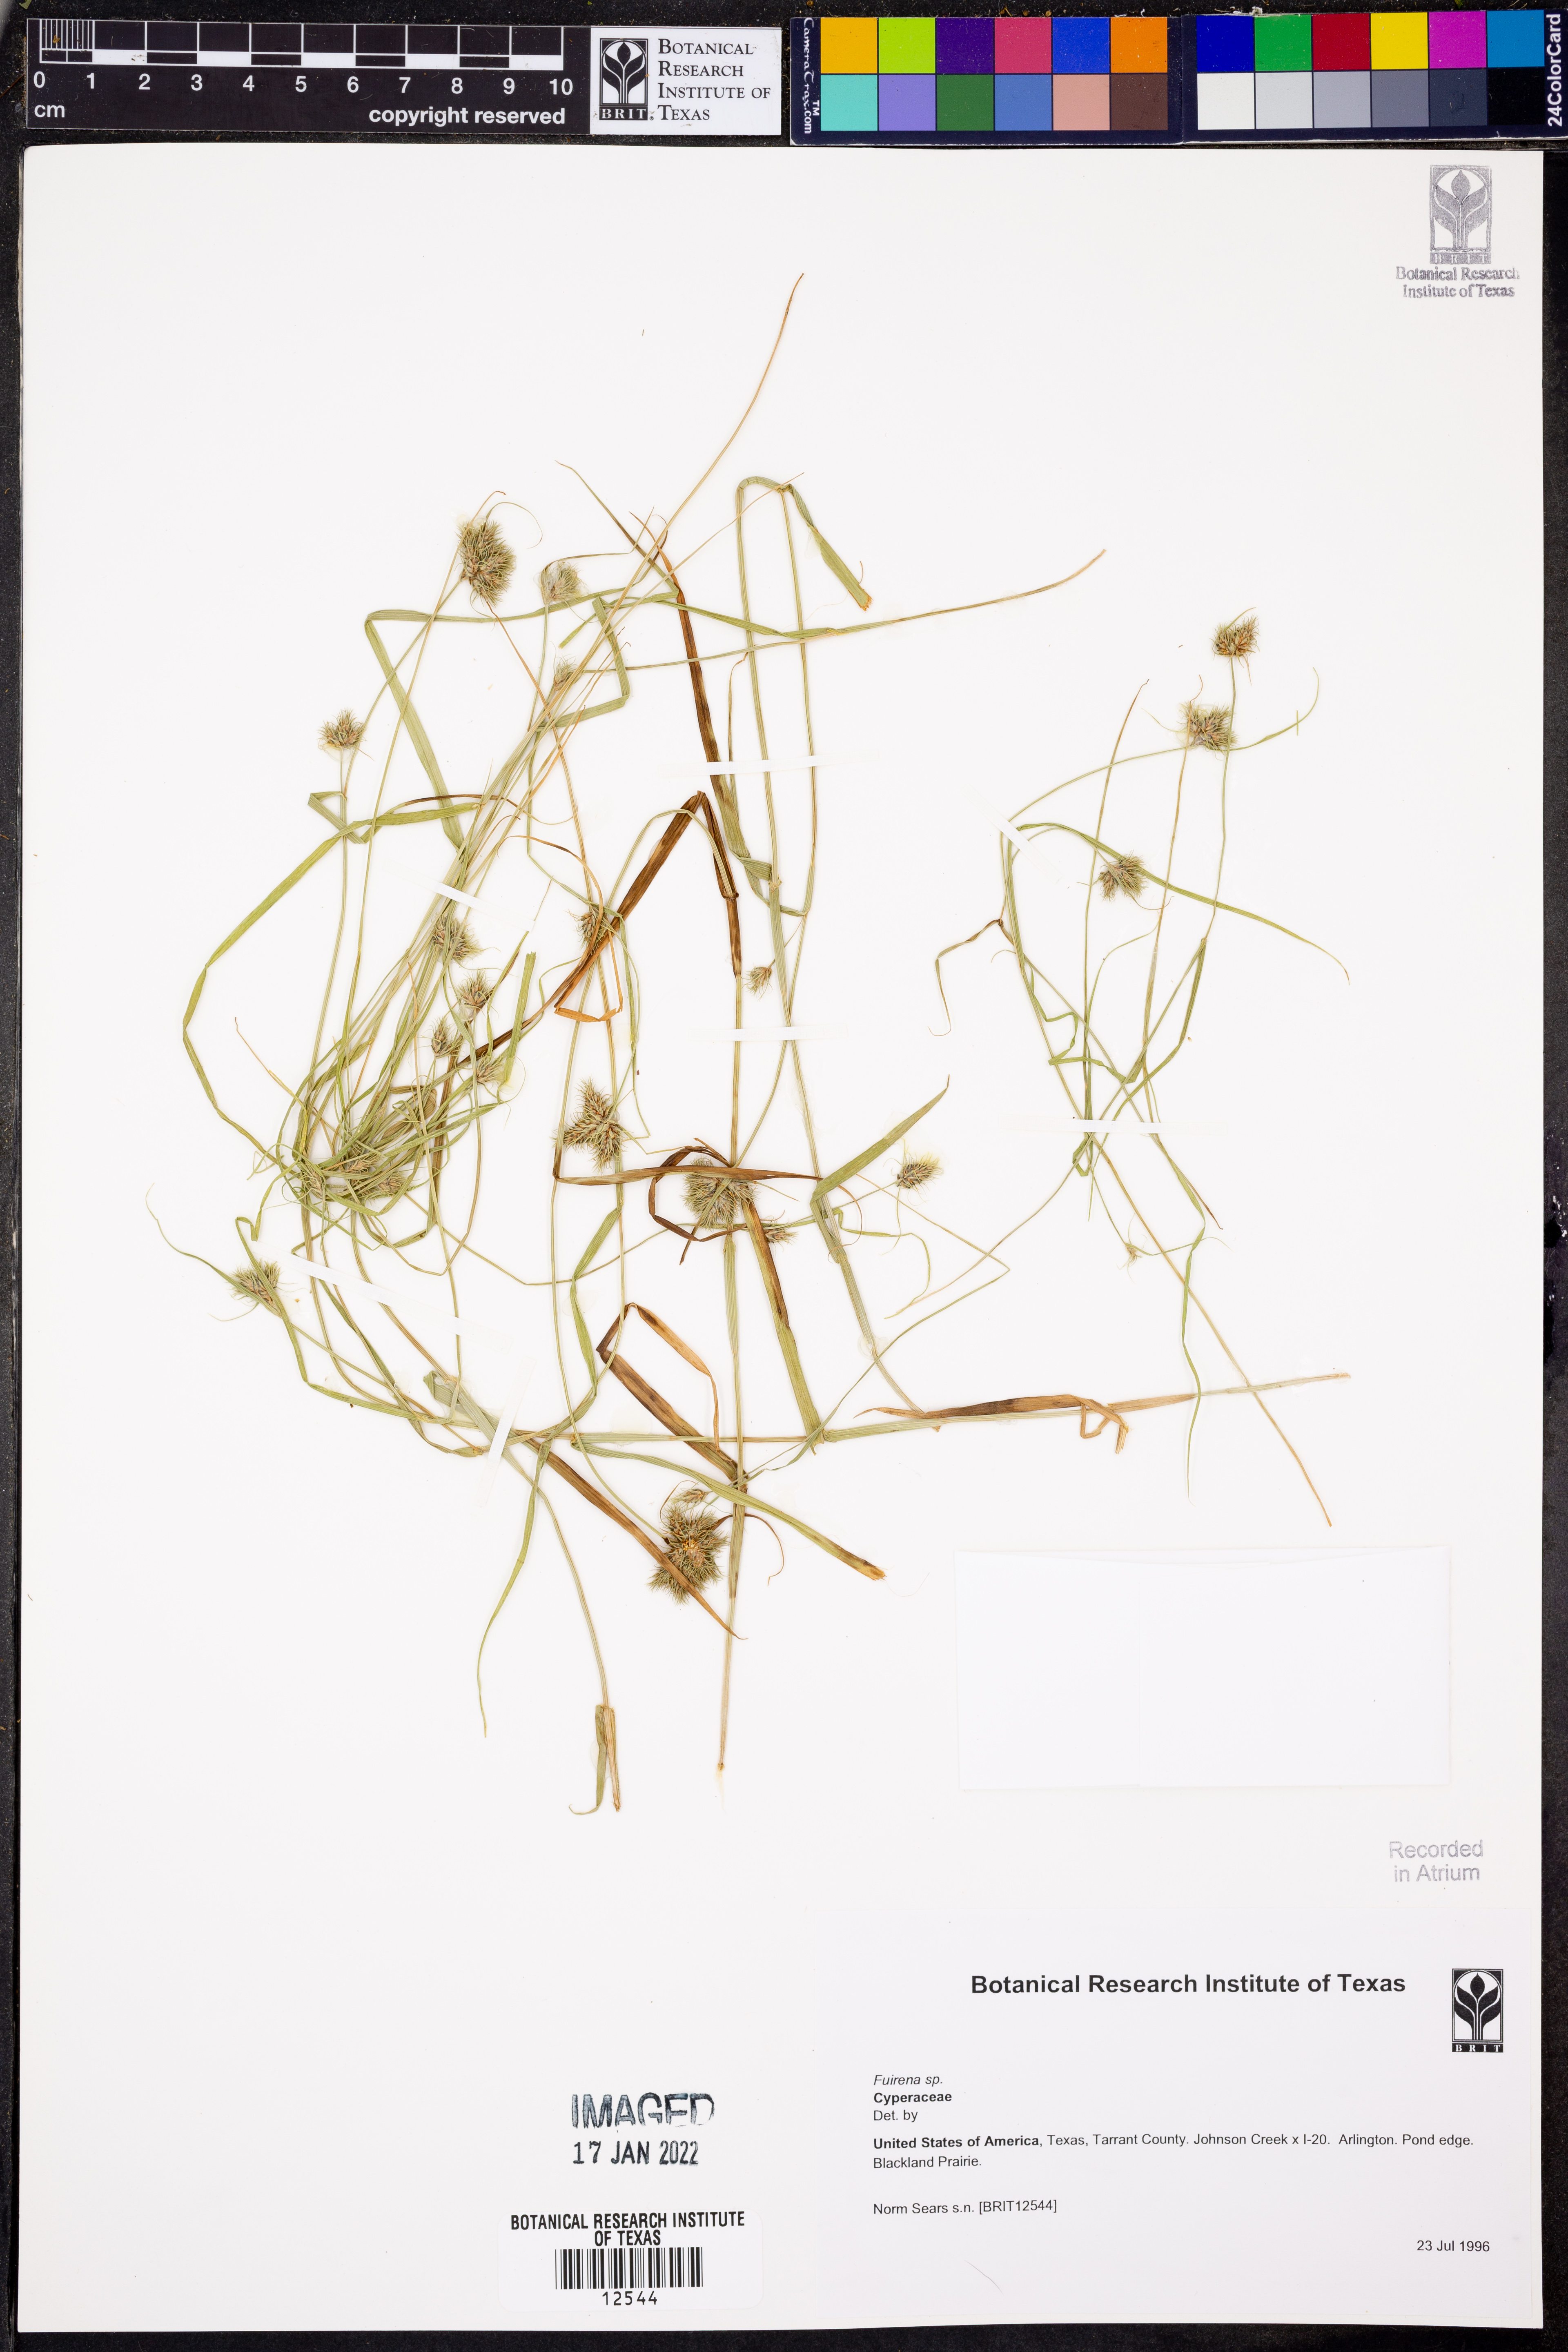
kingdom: Plantae
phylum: Tracheophyta
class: Liliopsida
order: Poales
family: Cyperaceae
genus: Fuirena
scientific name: Fuirena
